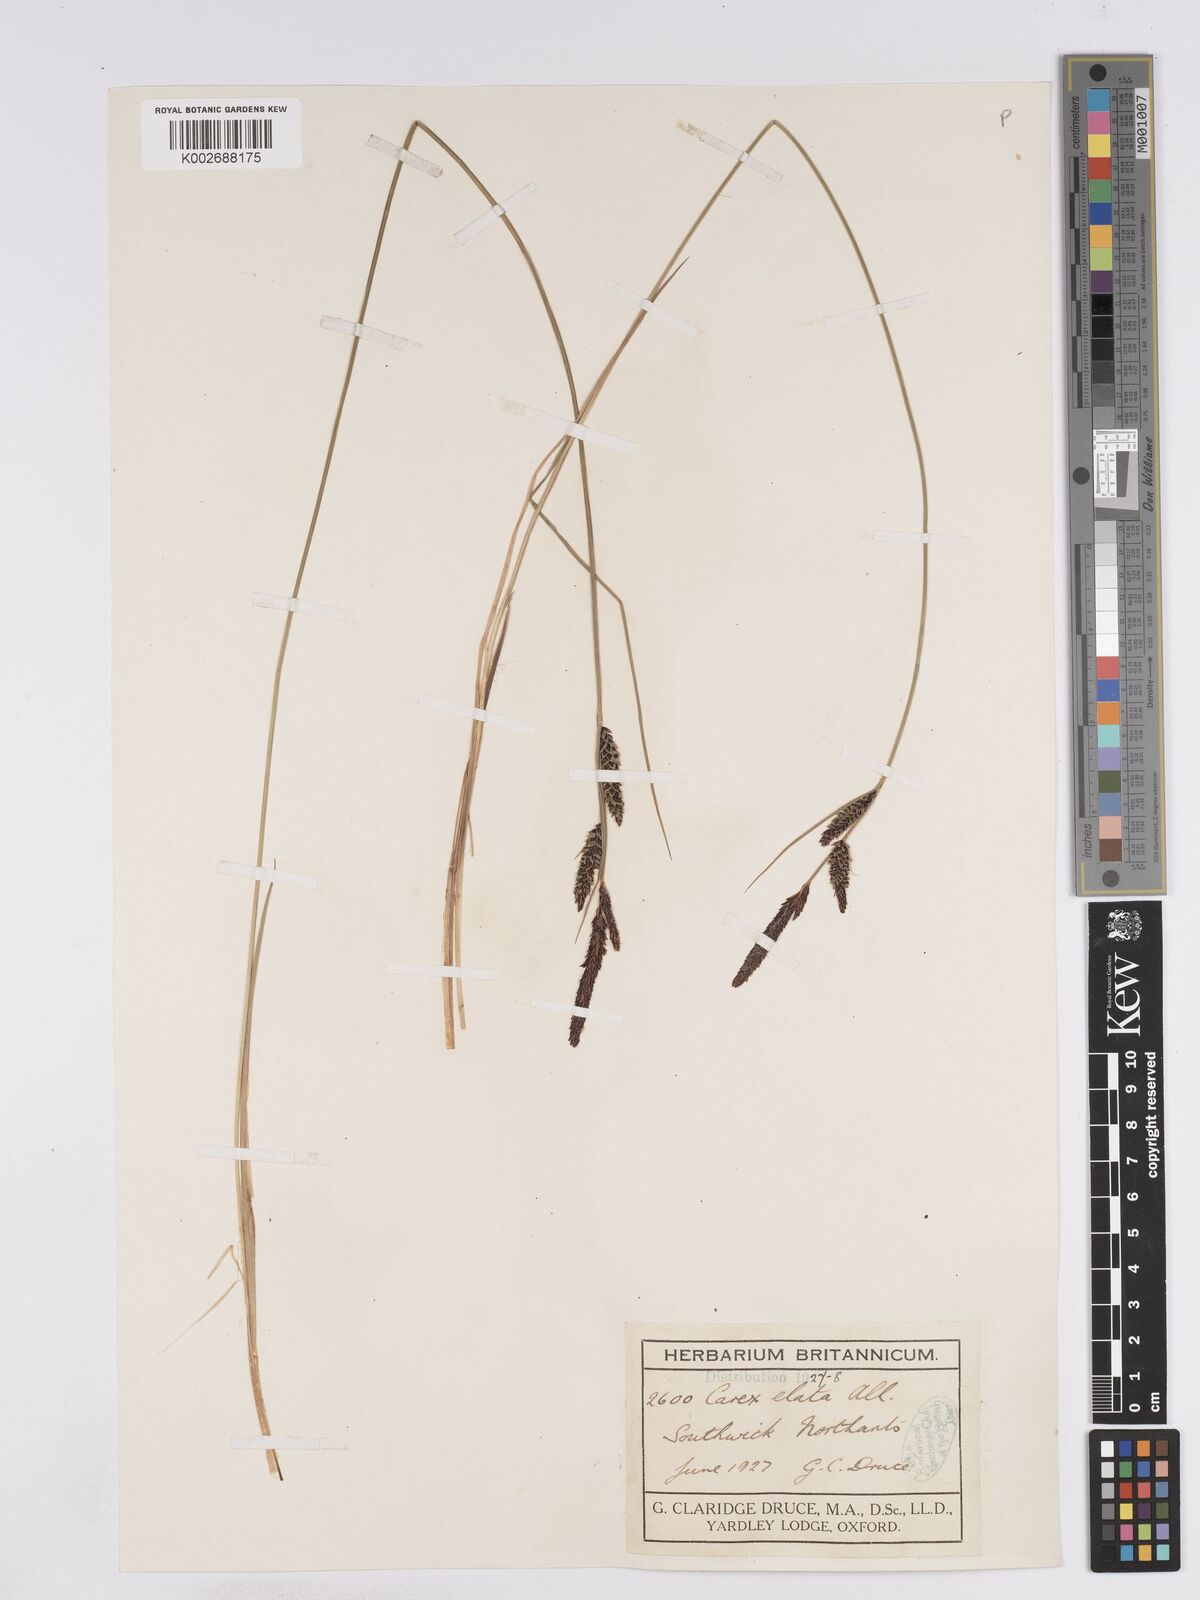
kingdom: Plantae
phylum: Tracheophyta
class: Liliopsida
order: Poales
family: Cyperaceae
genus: Carex
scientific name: Carex elata
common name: Tufted sedge
